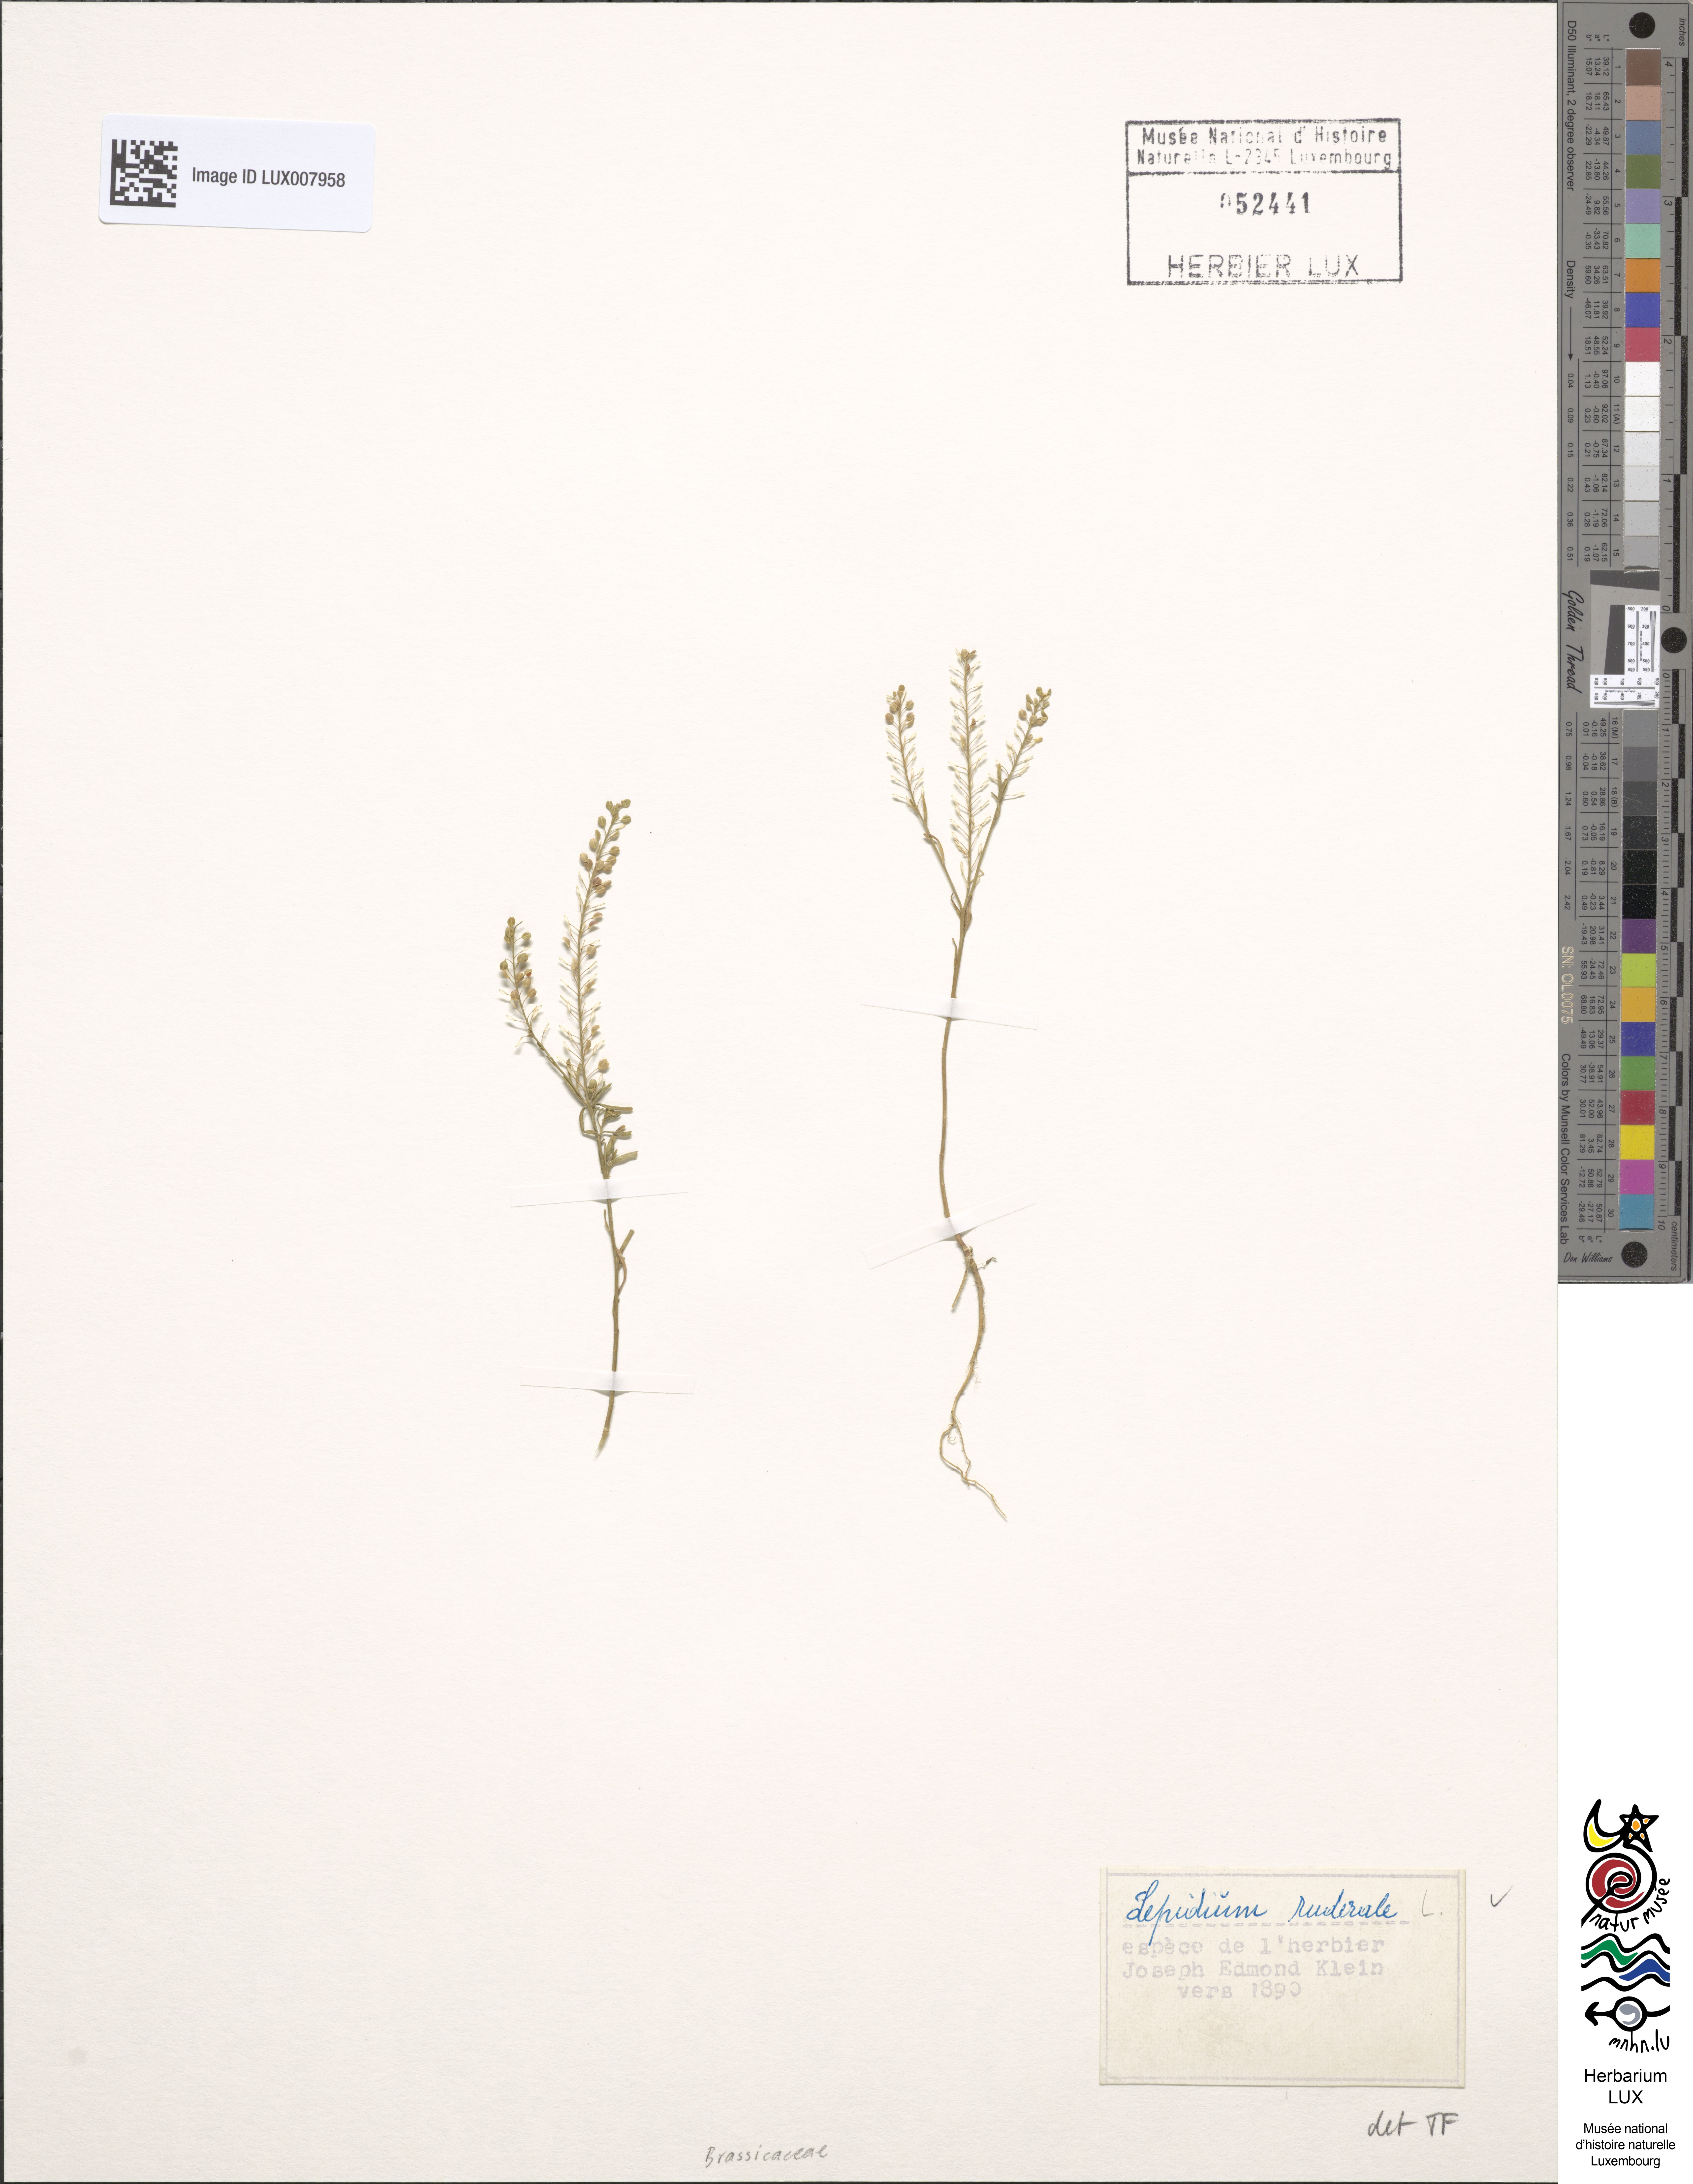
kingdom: Plantae
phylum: Tracheophyta
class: Magnoliopsida
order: Brassicales
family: Brassicaceae
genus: Lepidium
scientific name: Lepidium ruderale
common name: Narrow-leaved pepperwort
